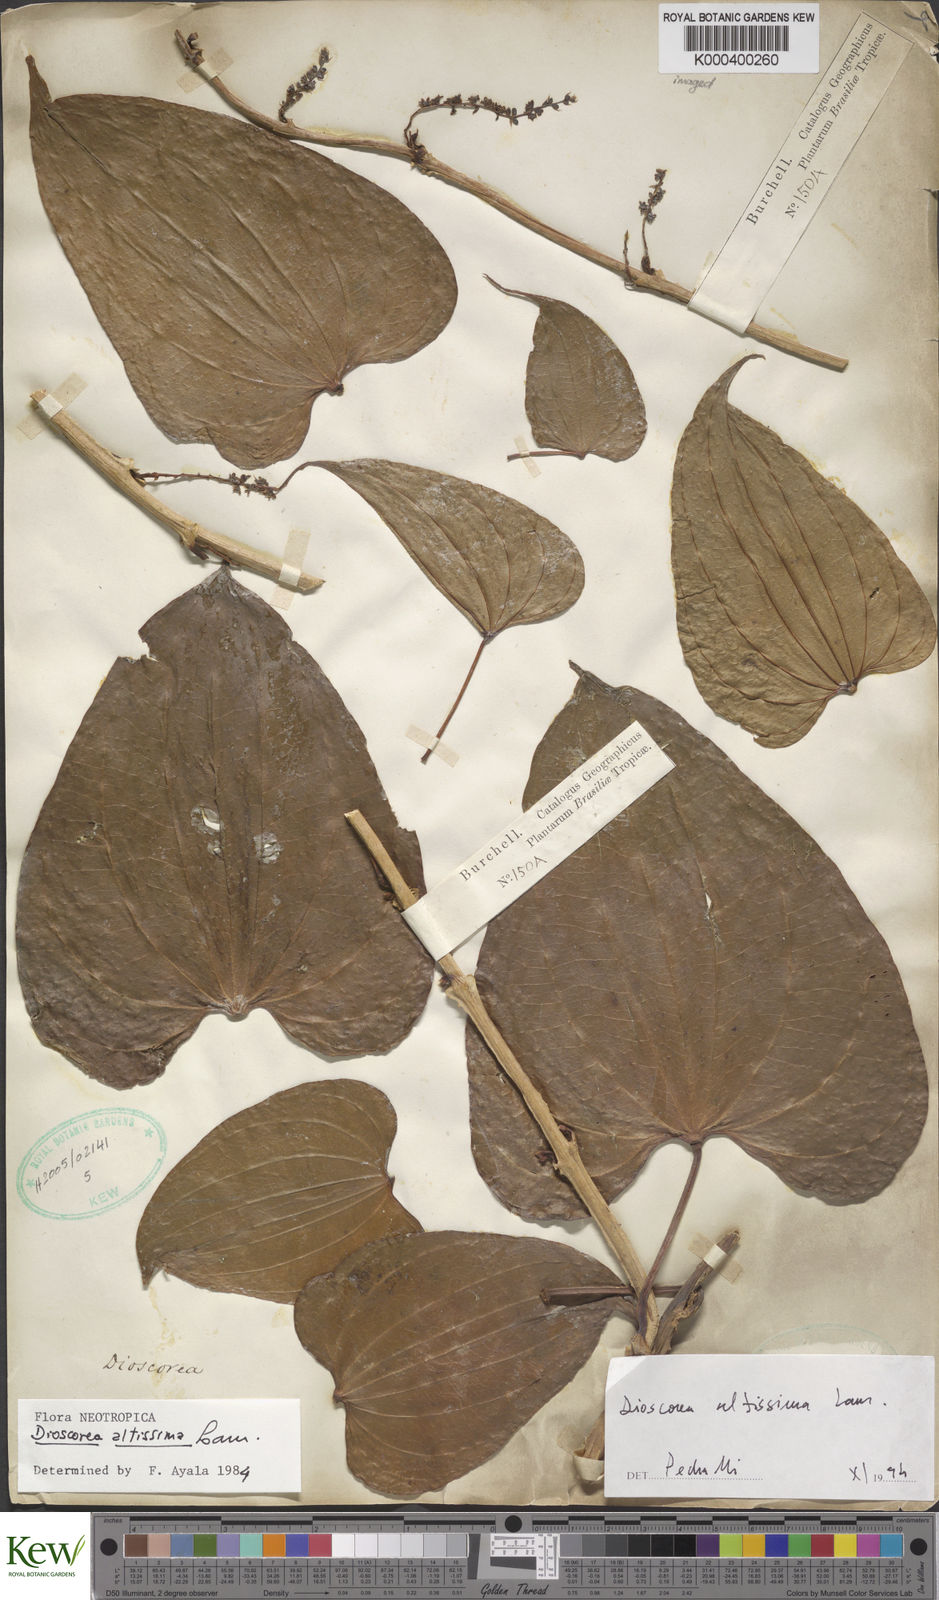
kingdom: Plantae
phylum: Tracheophyta
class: Liliopsida
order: Dioscoreales
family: Dioscoreaceae
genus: Dioscorea
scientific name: Dioscorea chondrocarpa
